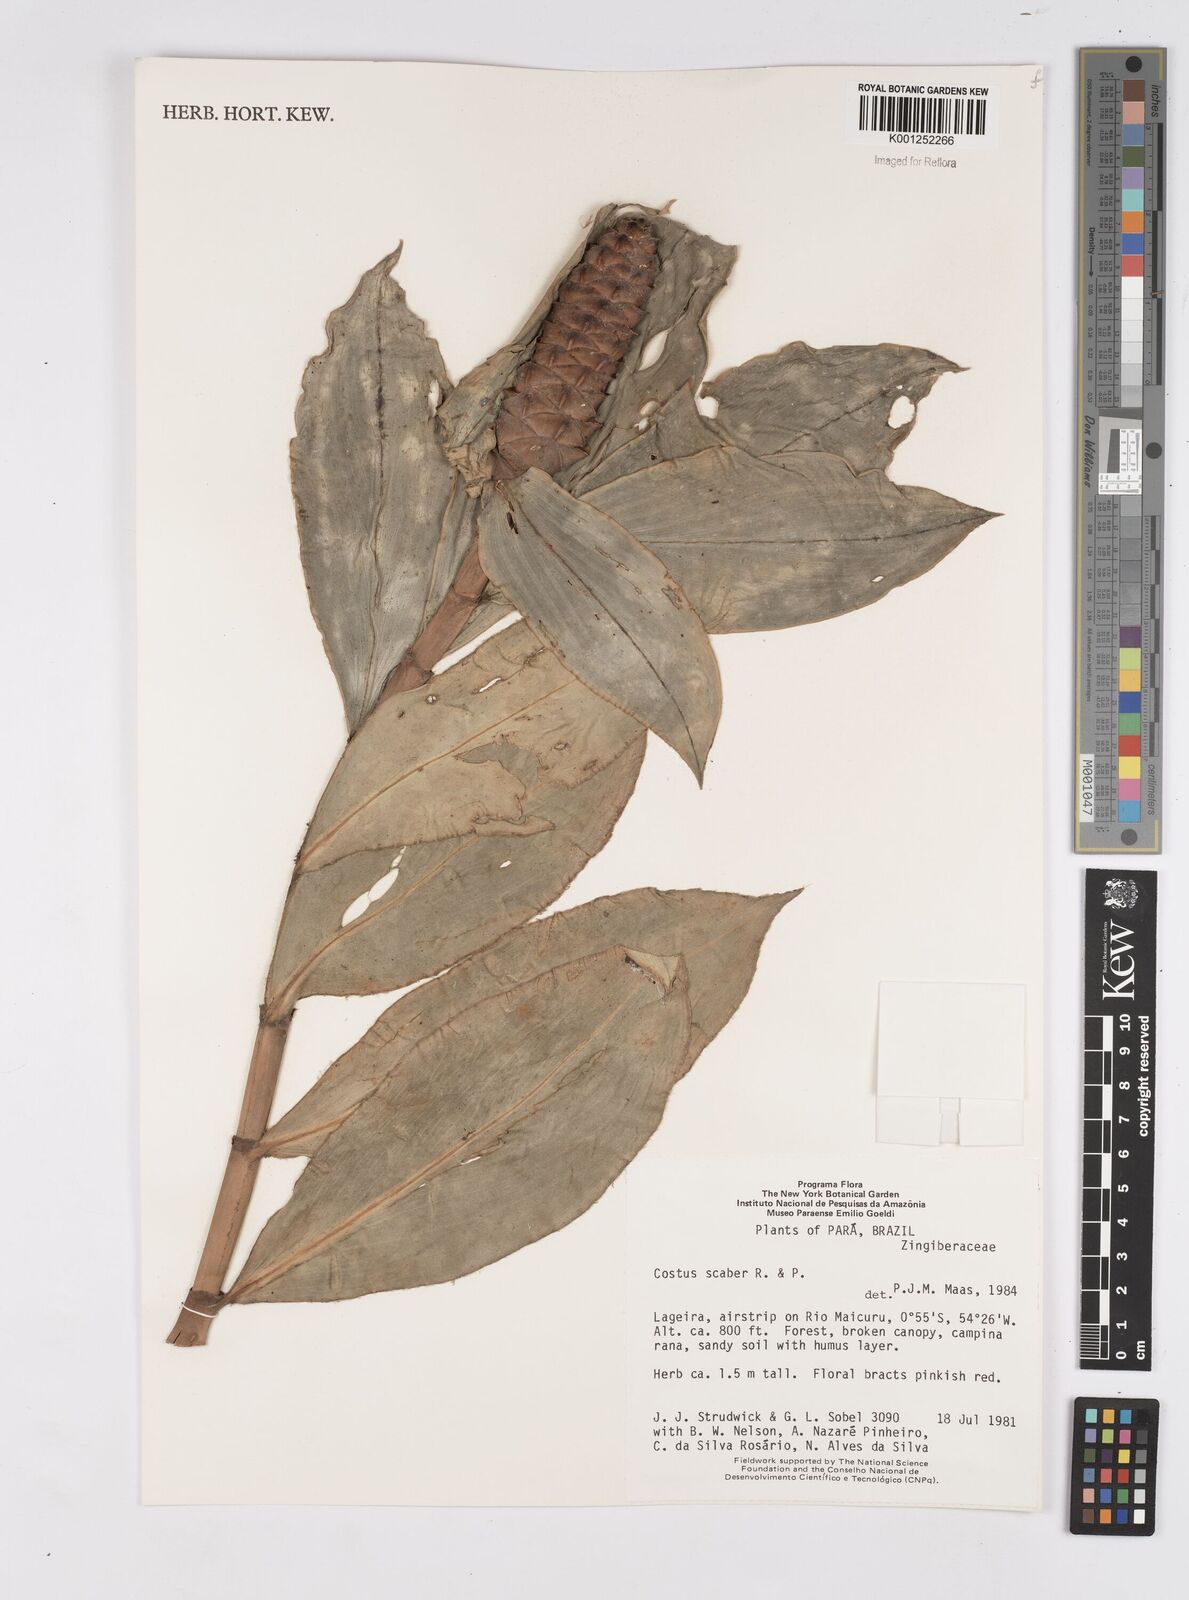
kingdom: Plantae
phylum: Tracheophyta
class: Liliopsida
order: Zingiberales
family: Costaceae
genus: Costus
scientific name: Costus scaber
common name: Spiral head ginger
